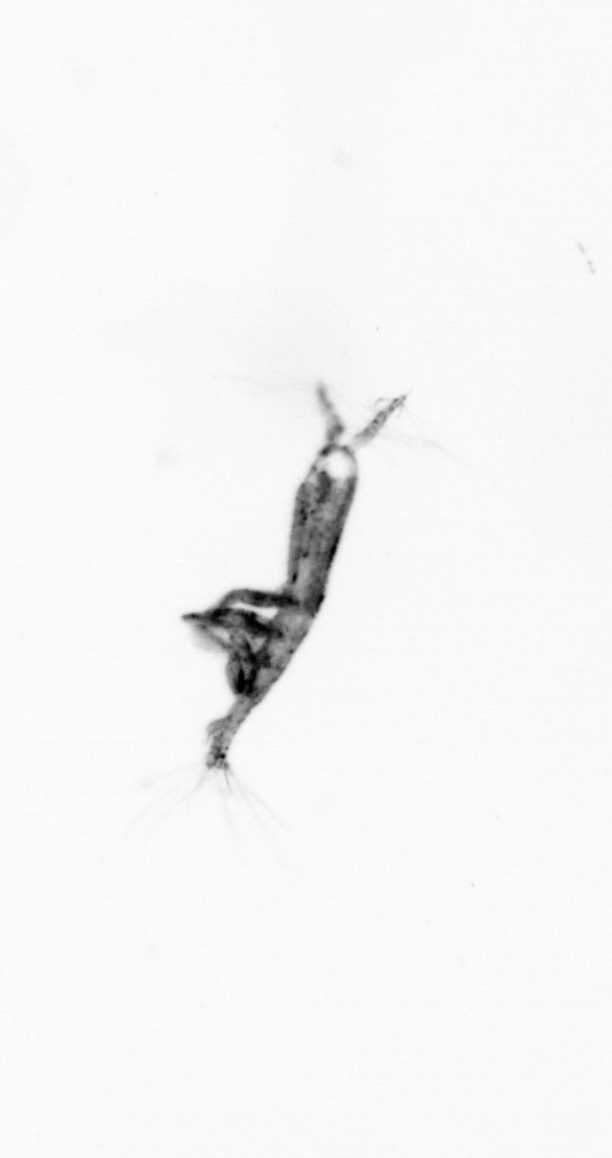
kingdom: Animalia
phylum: Arthropoda
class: Copepoda
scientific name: Copepoda
